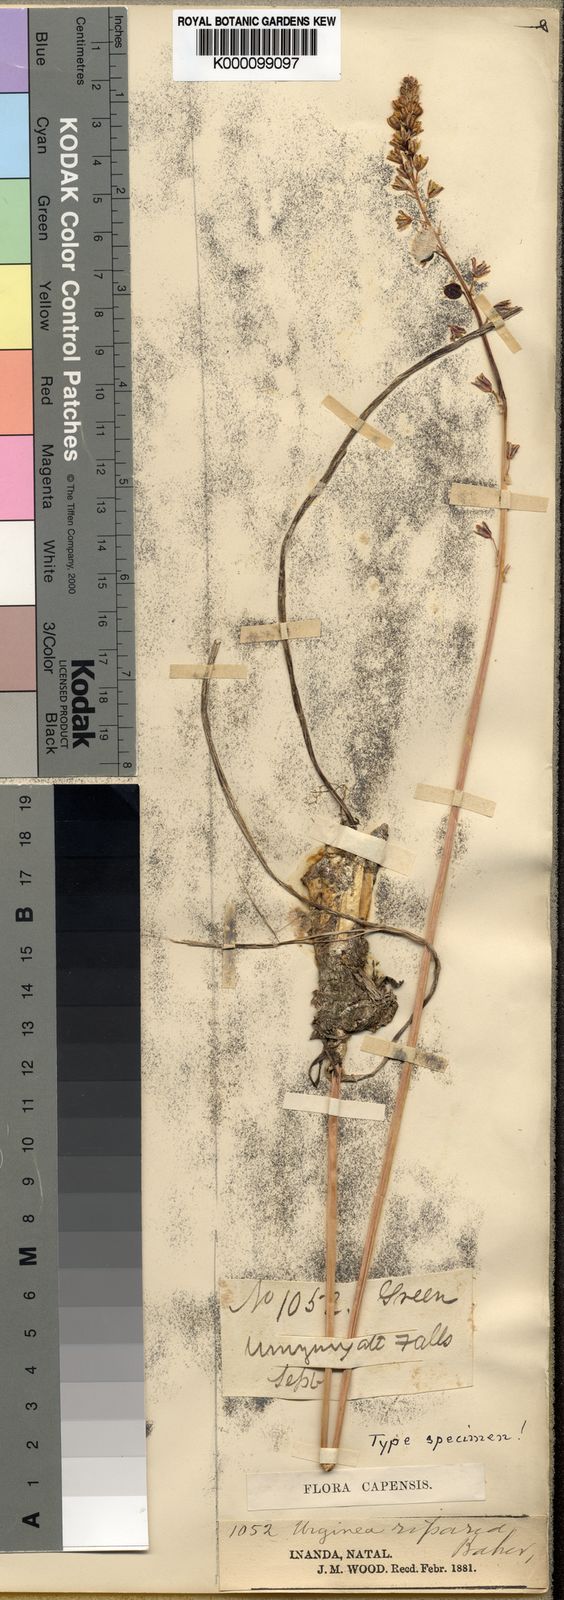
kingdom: Plantae
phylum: Tracheophyta
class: Liliopsida
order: Asparagales
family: Asparagaceae
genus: Drimia
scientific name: Drimia
